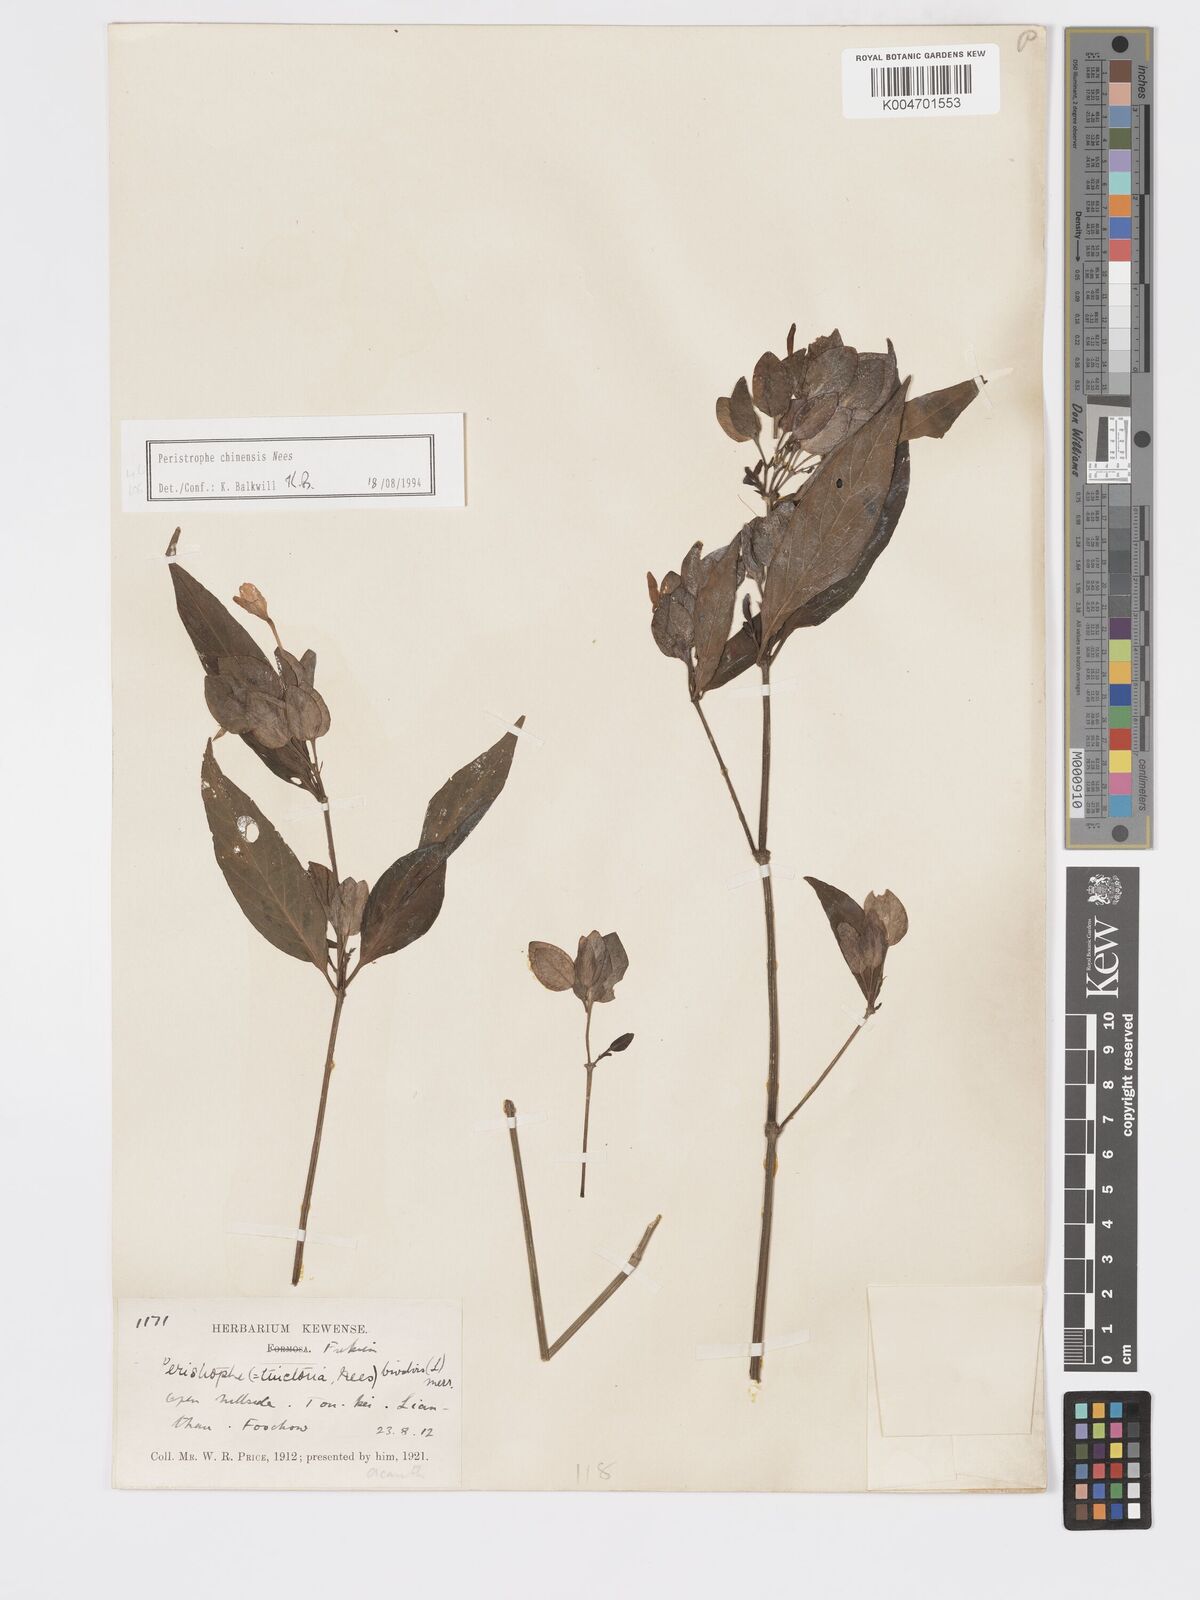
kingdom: Plantae
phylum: Tracheophyta
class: Magnoliopsida
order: Lamiales
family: Acanthaceae
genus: Dicliptera
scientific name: Dicliptera chinensis
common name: Chinese foldwing
